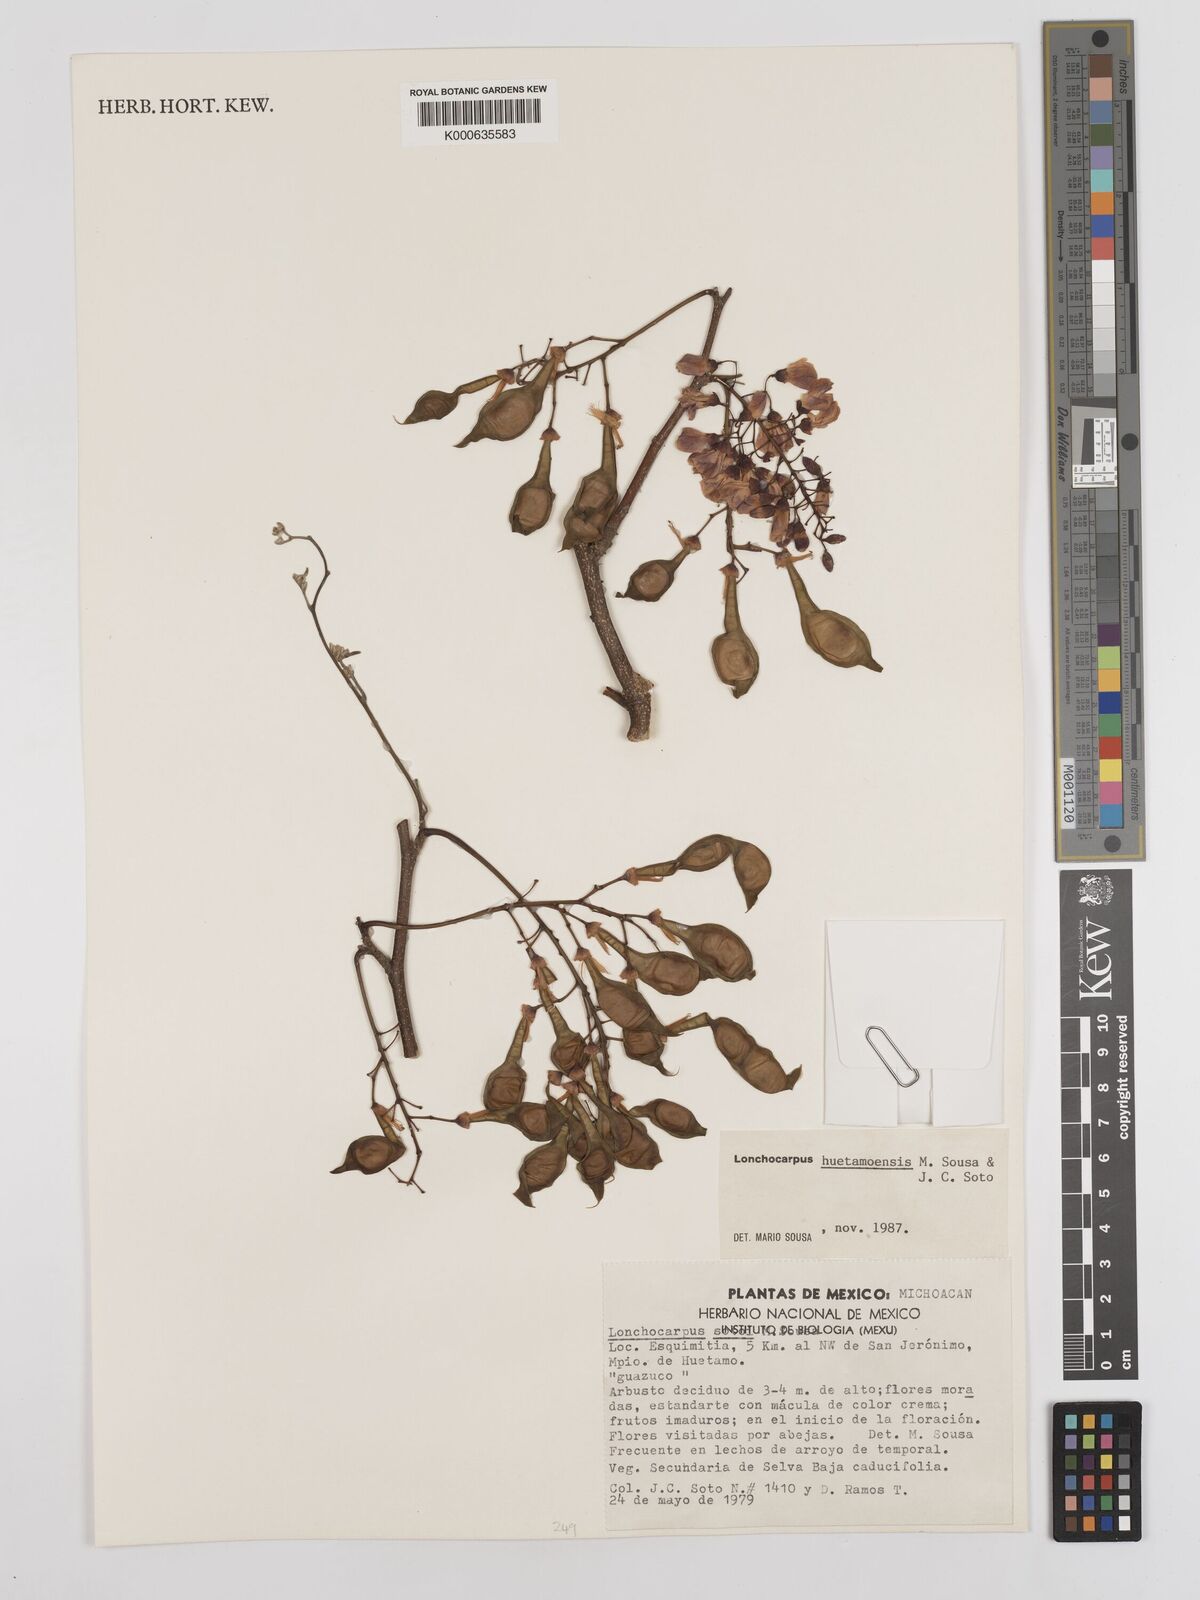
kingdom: Plantae
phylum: Tracheophyta
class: Magnoliopsida
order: Fabales
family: Fabaceae
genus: Lonchocarpus
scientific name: Lonchocarpus huetamoensis
